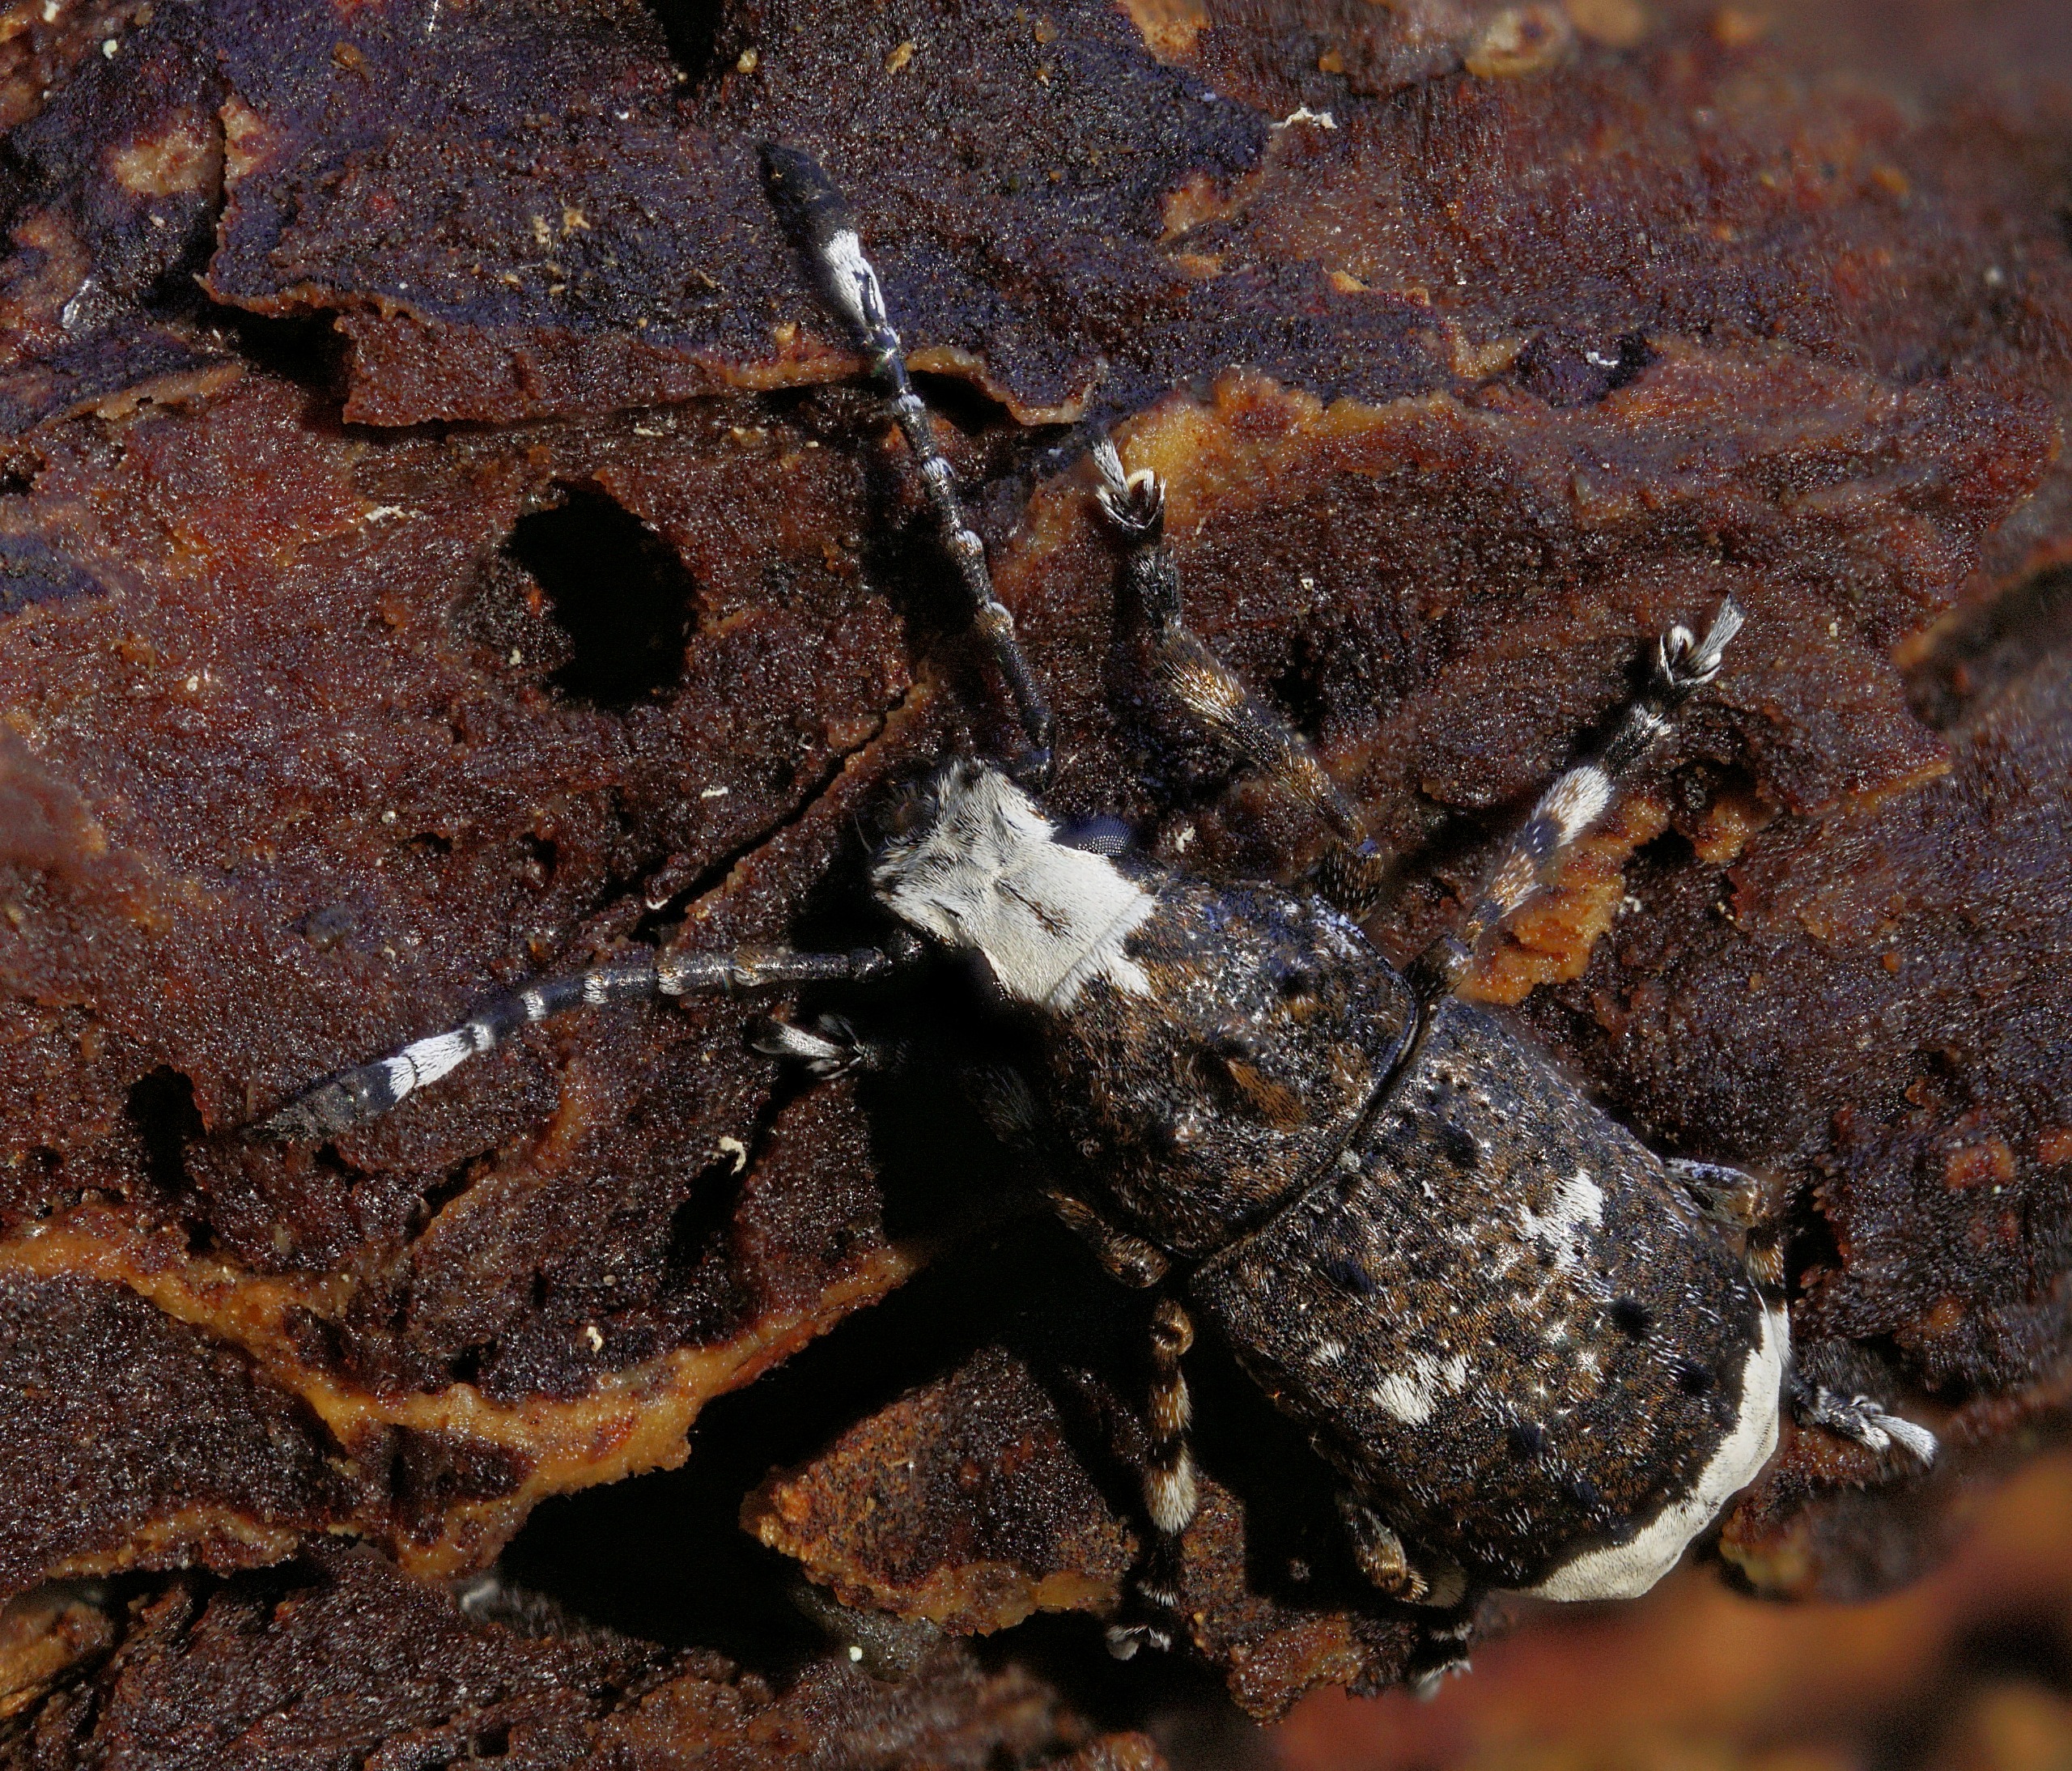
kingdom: Animalia
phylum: Arthropoda
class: Insecta
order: Coleoptera
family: Anthribidae
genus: Platystomos
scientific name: Platystomos albinus
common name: Hvidhovedet bredsnudebille
